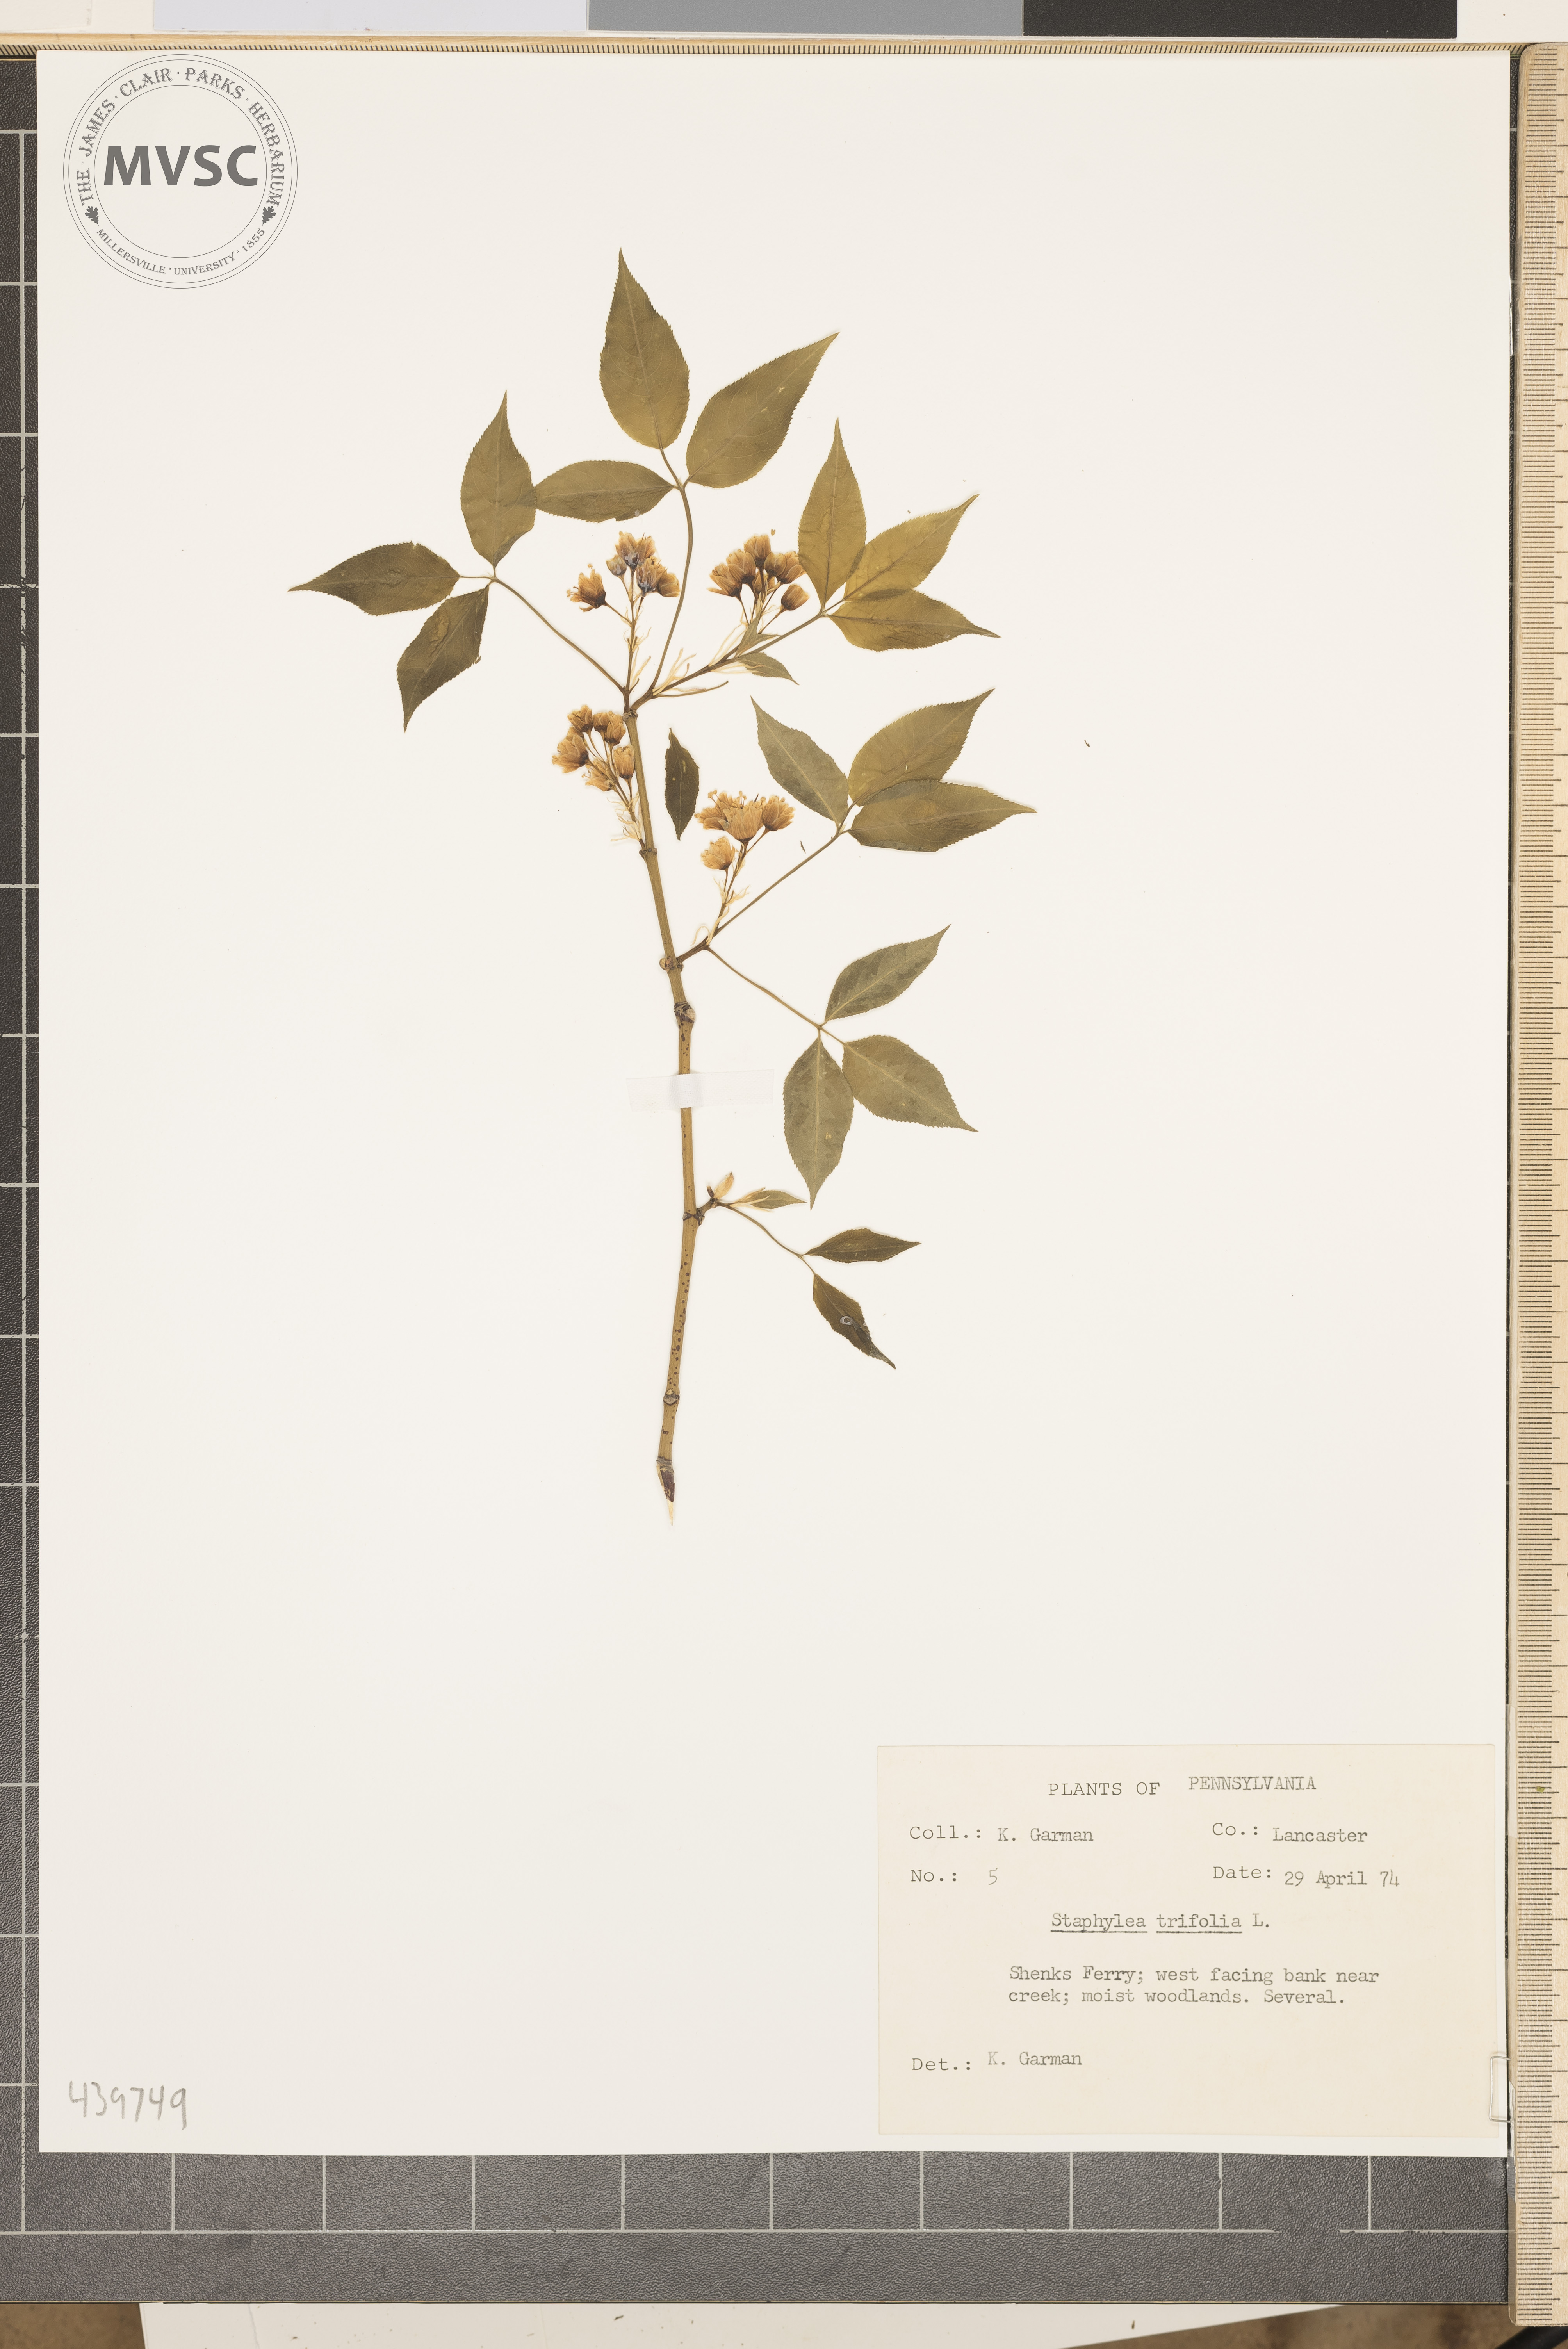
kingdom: Plantae
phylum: Tracheophyta
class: Magnoliopsida
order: Crossosomatales
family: Staphyleaceae
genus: Staphylea
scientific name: Staphylea trifolia
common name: American bladdernut
